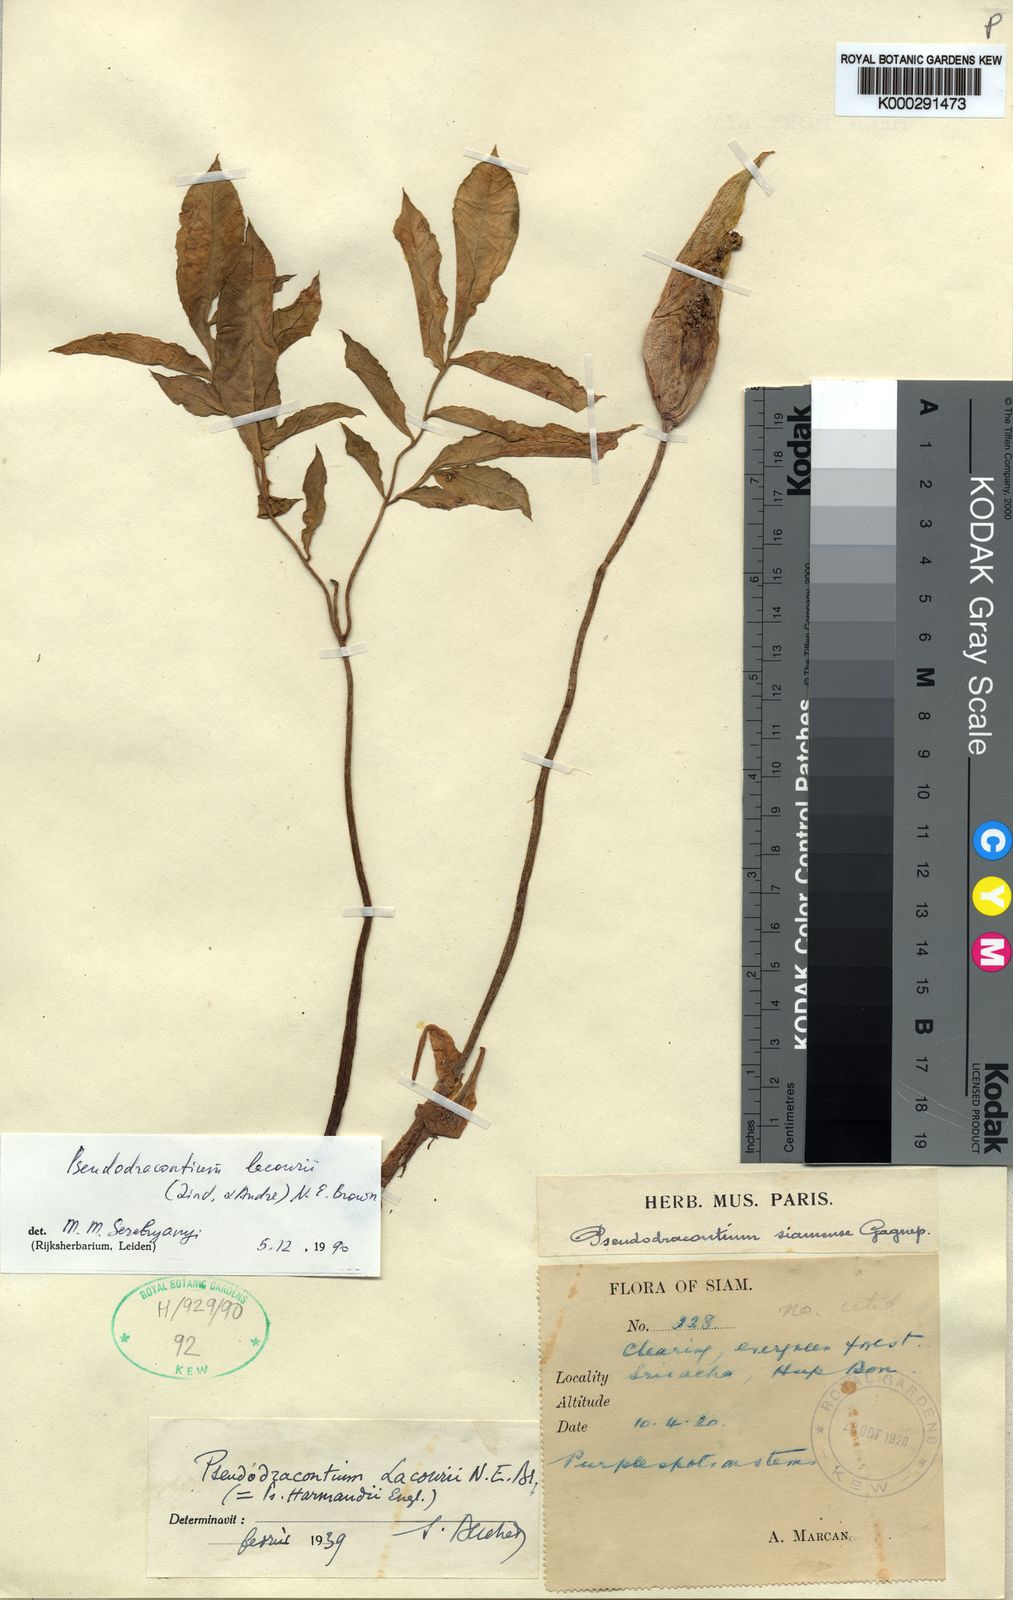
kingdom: Plantae
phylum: Tracheophyta
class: Liliopsida
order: Alismatales
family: Araceae
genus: Amorphophallus
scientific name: Amorphophallus
